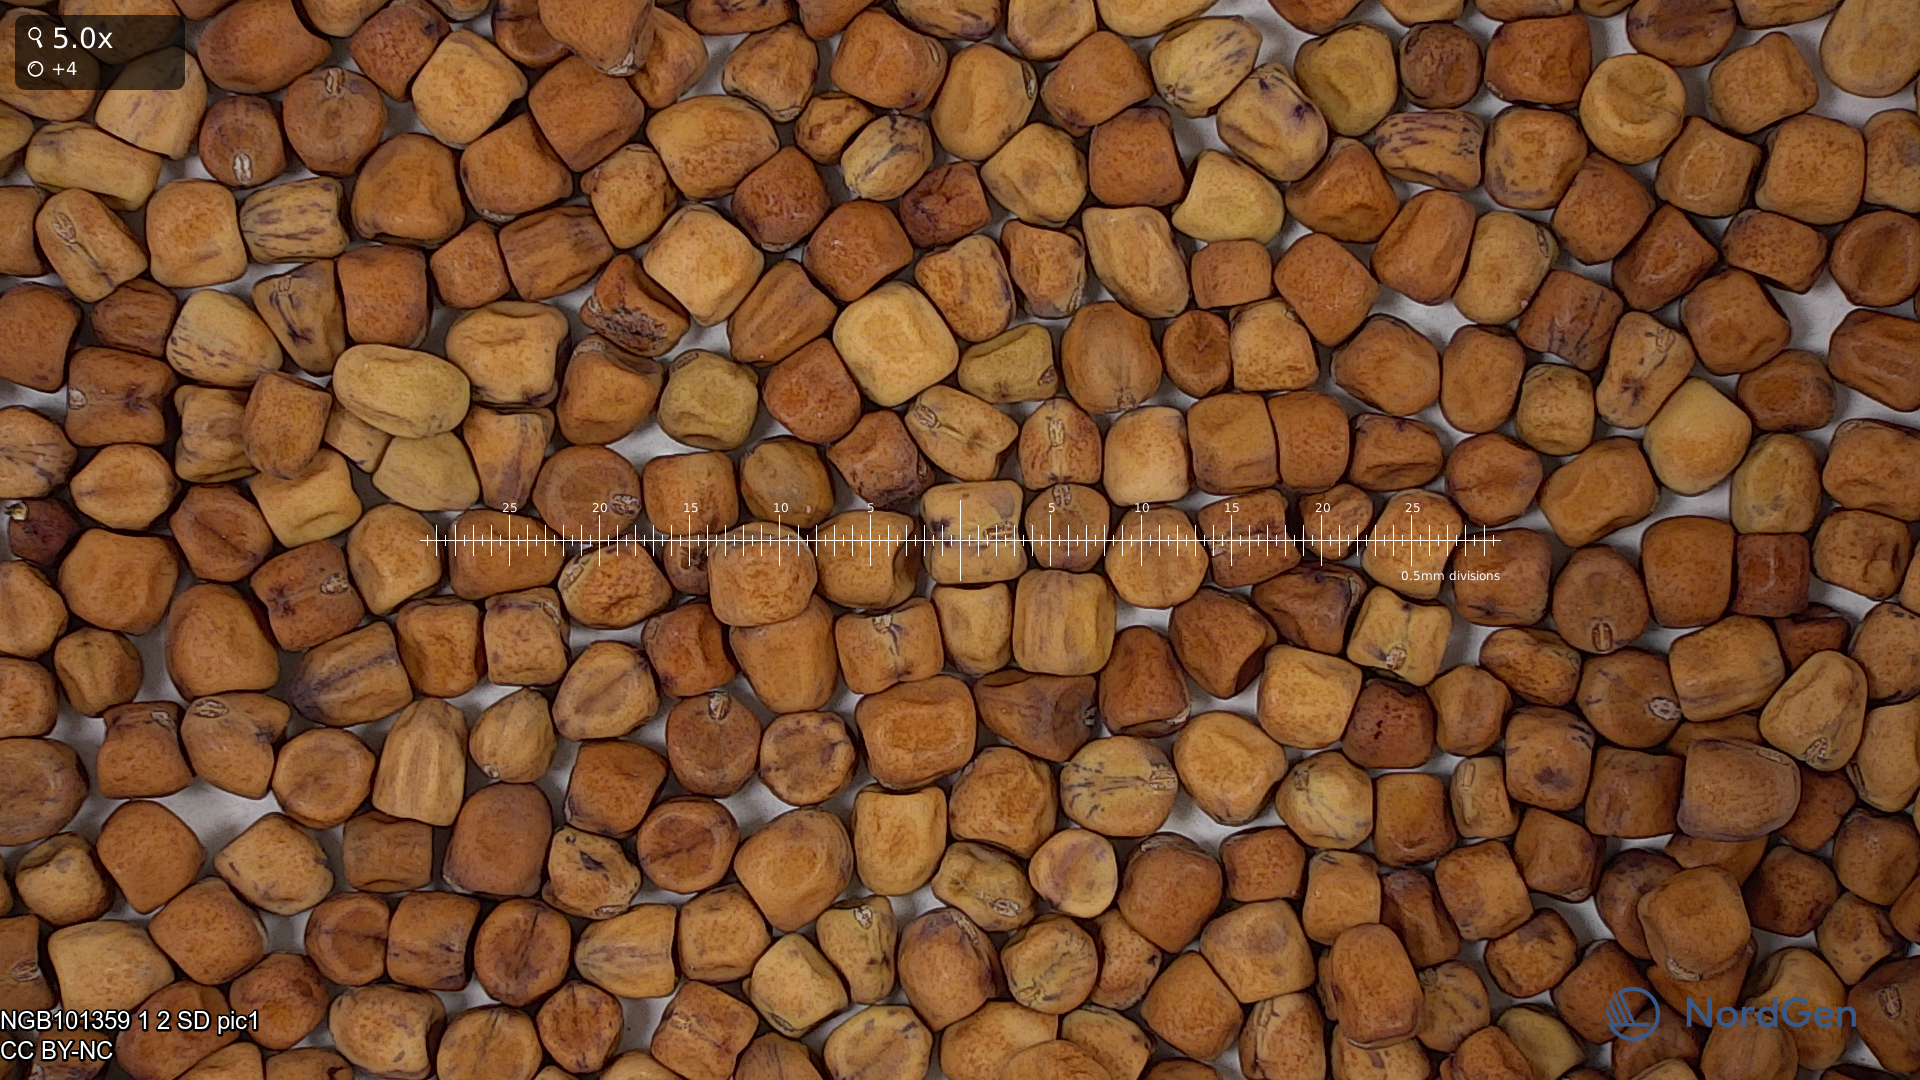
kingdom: Plantae
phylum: Tracheophyta
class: Magnoliopsida
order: Fabales
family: Fabaceae
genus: Lathyrus
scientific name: Lathyrus oleraceus
